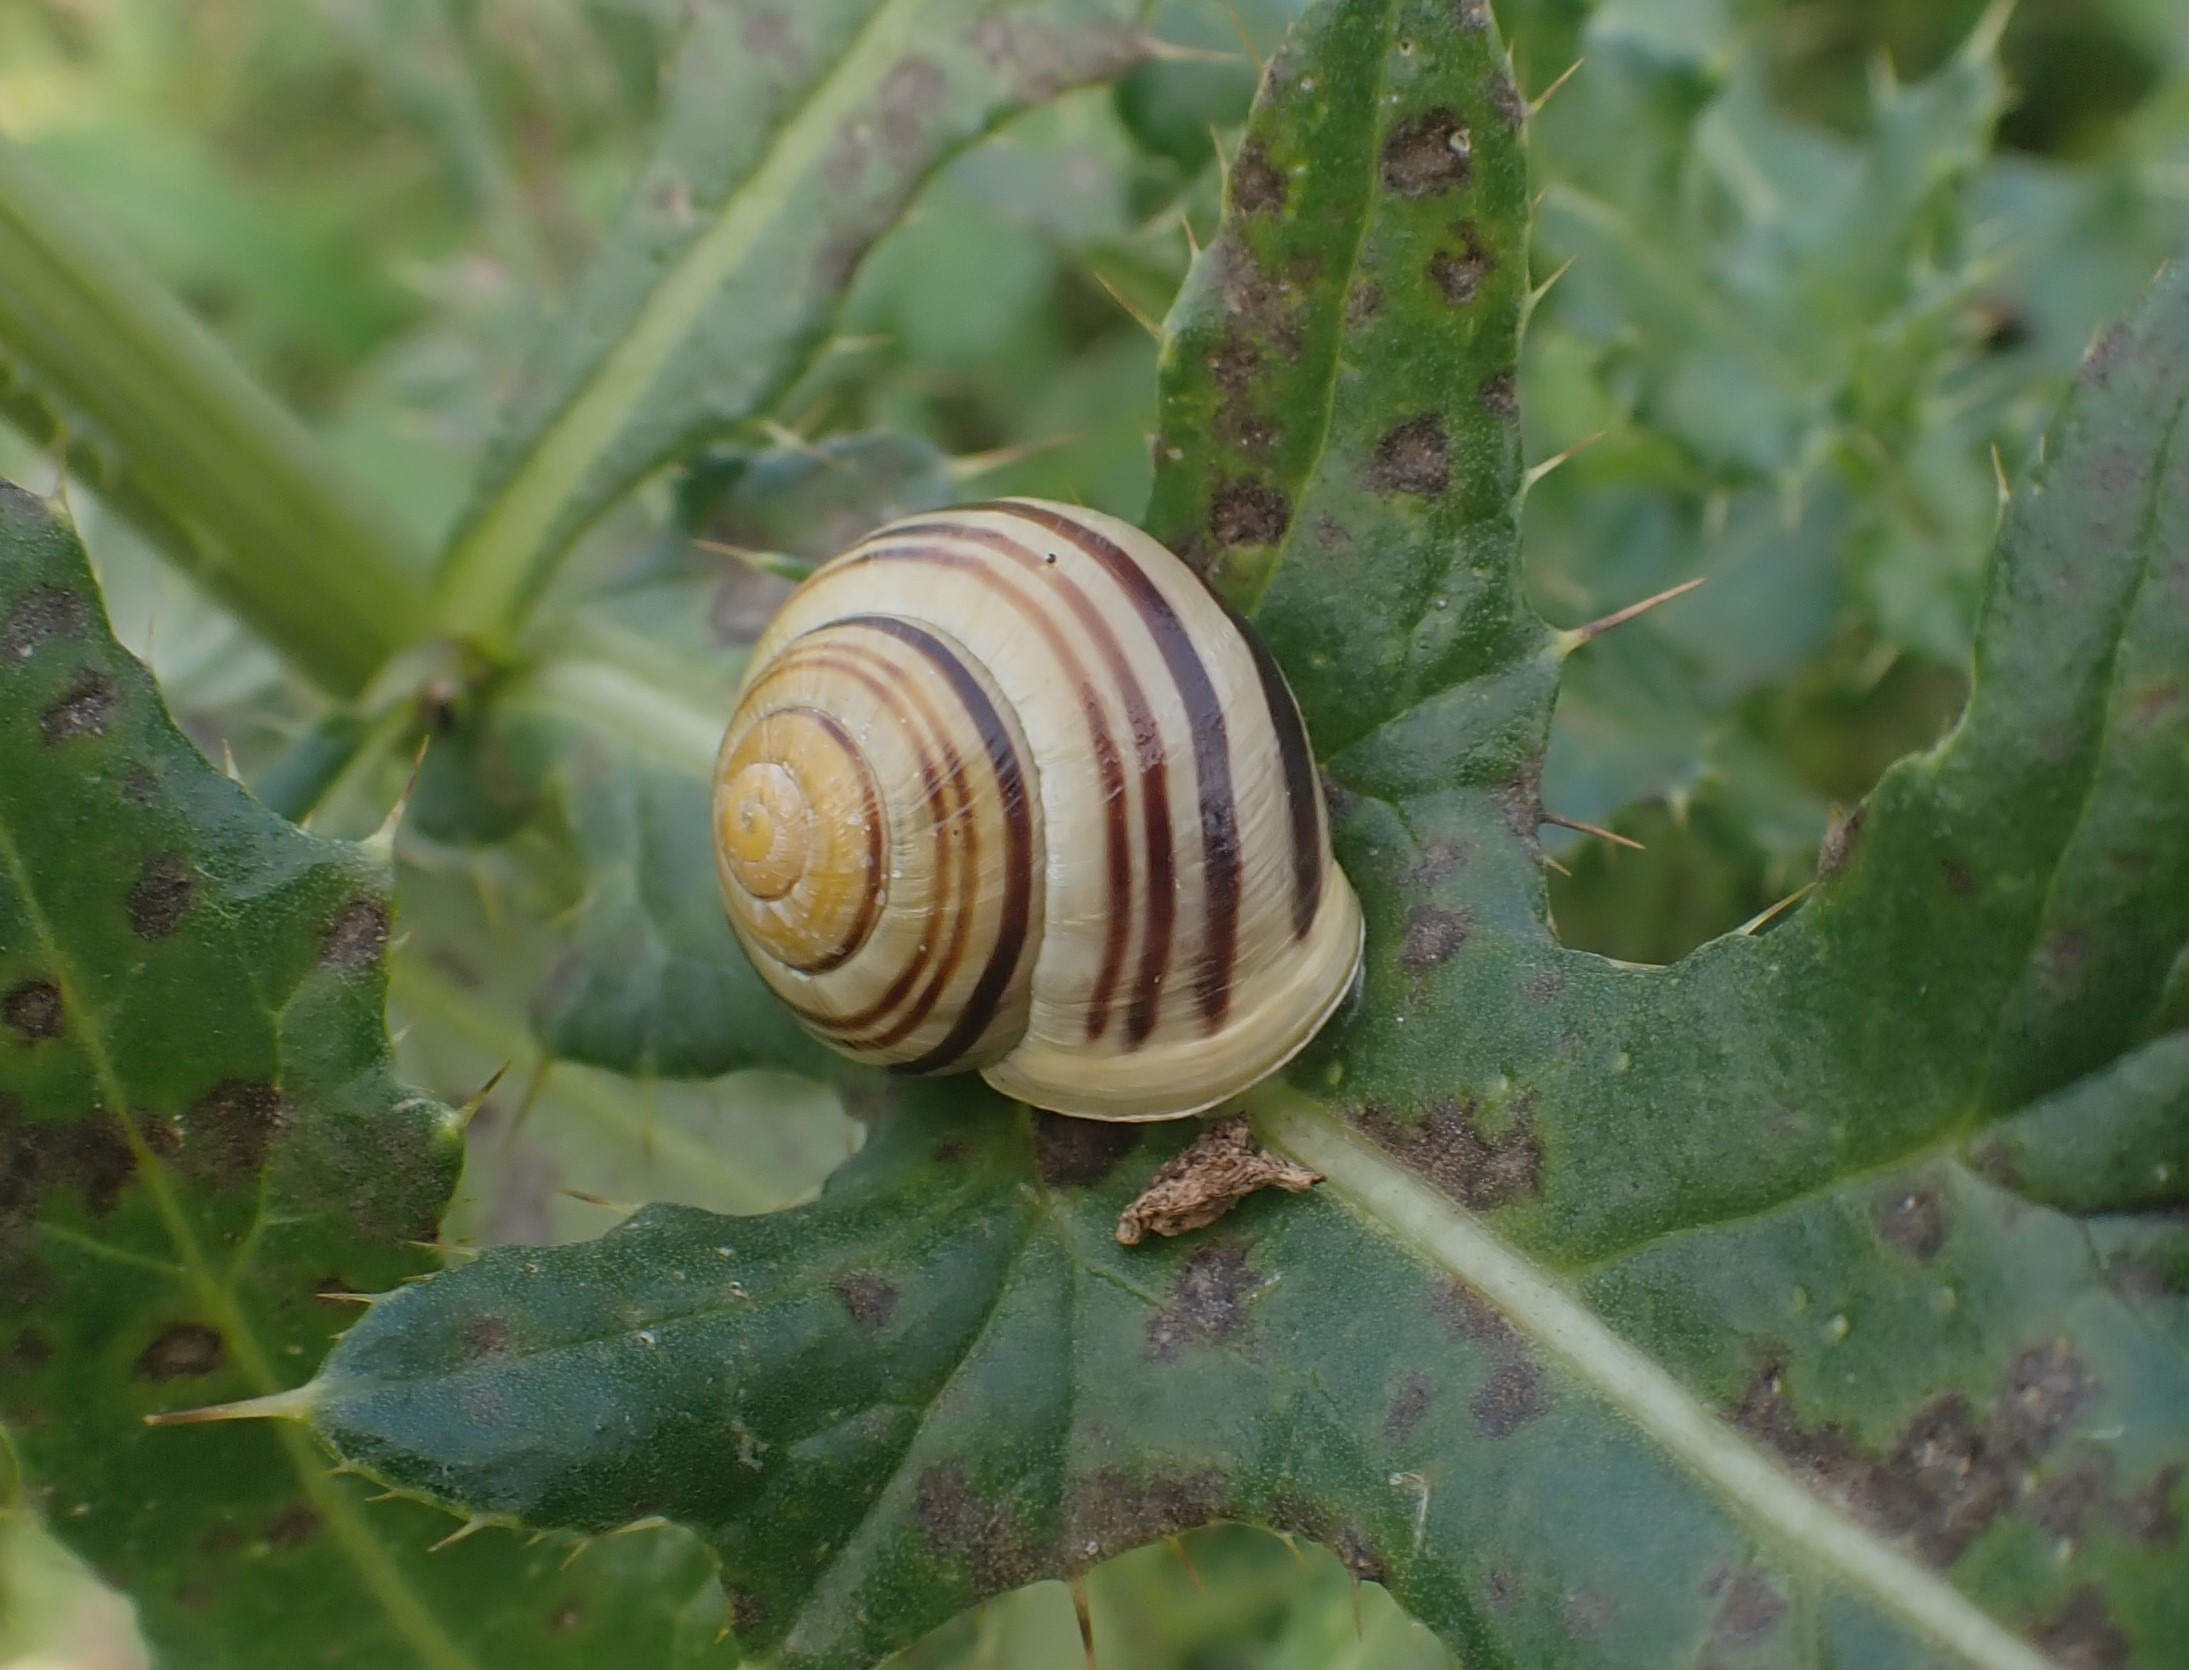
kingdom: Animalia
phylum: Mollusca
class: Gastropoda
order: Stylommatophora
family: Helicidae
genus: Cepaea
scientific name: Cepaea hortensis
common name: Havesnegl
